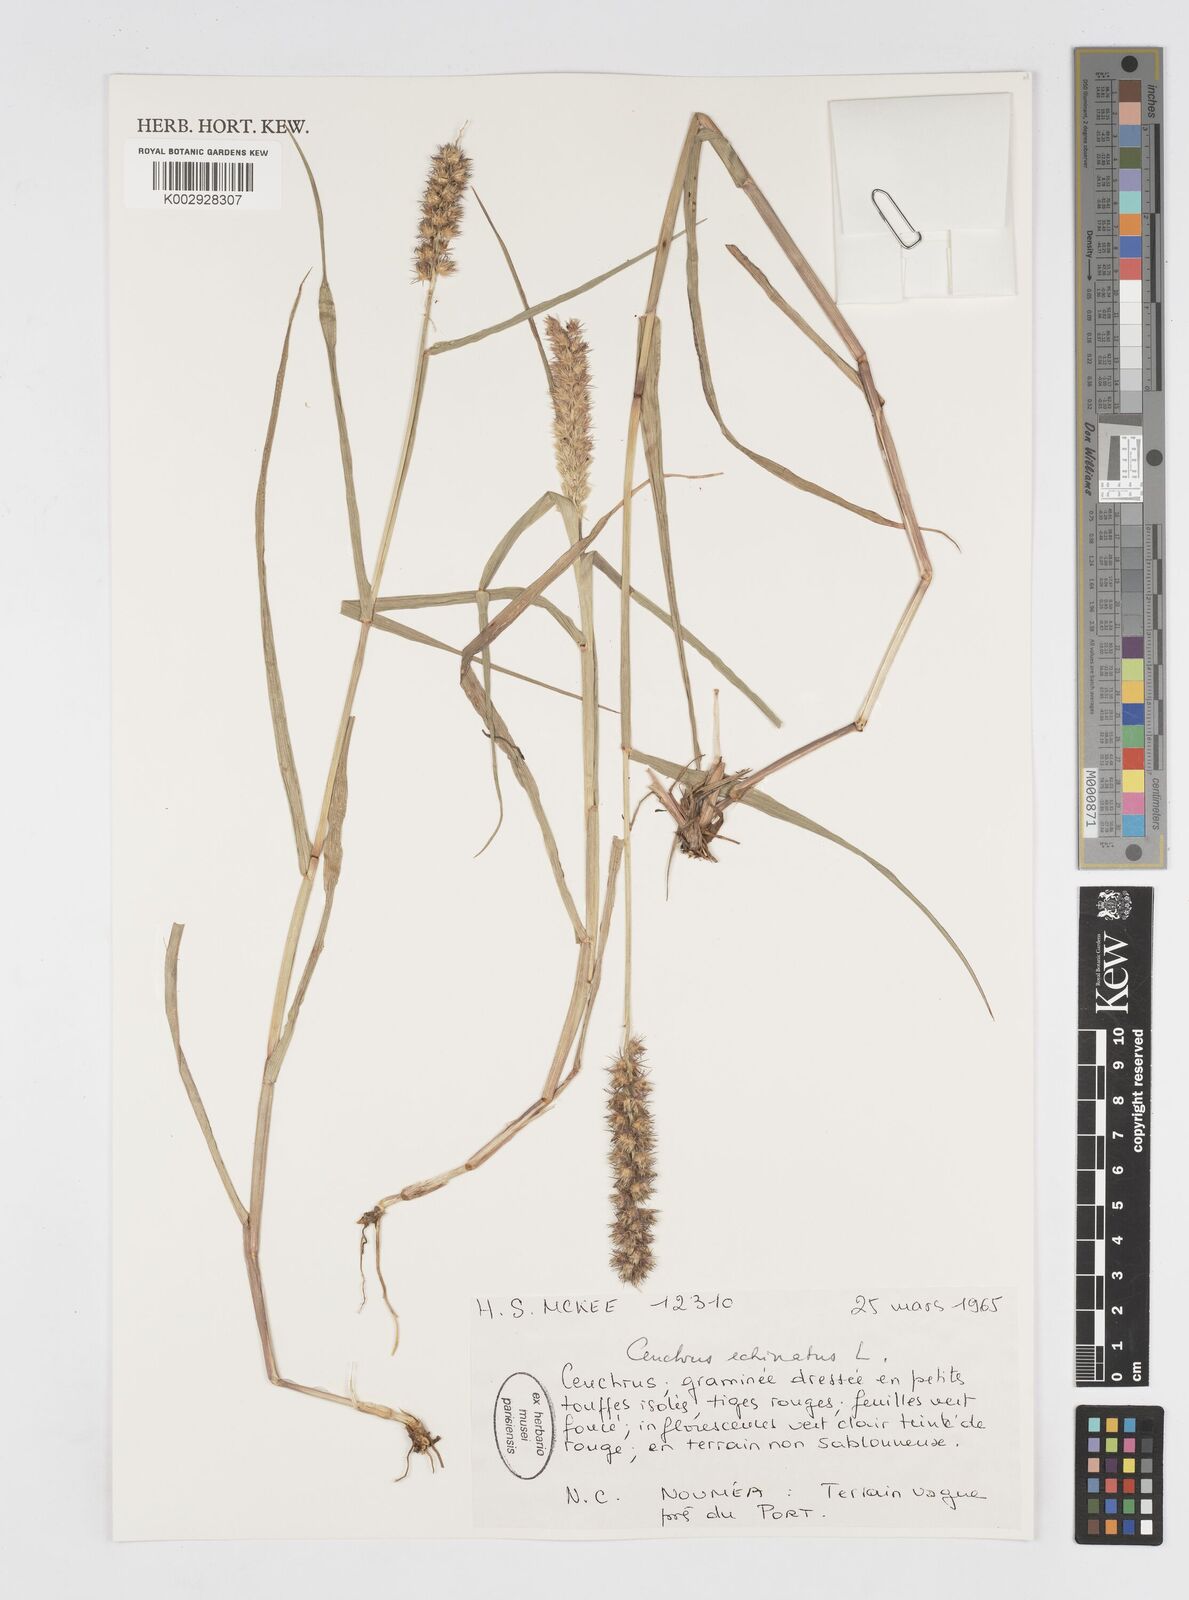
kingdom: Plantae
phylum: Tracheophyta
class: Liliopsida
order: Poales
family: Poaceae
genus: Cenchrus
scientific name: Cenchrus echinatus
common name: Southern sandbur
